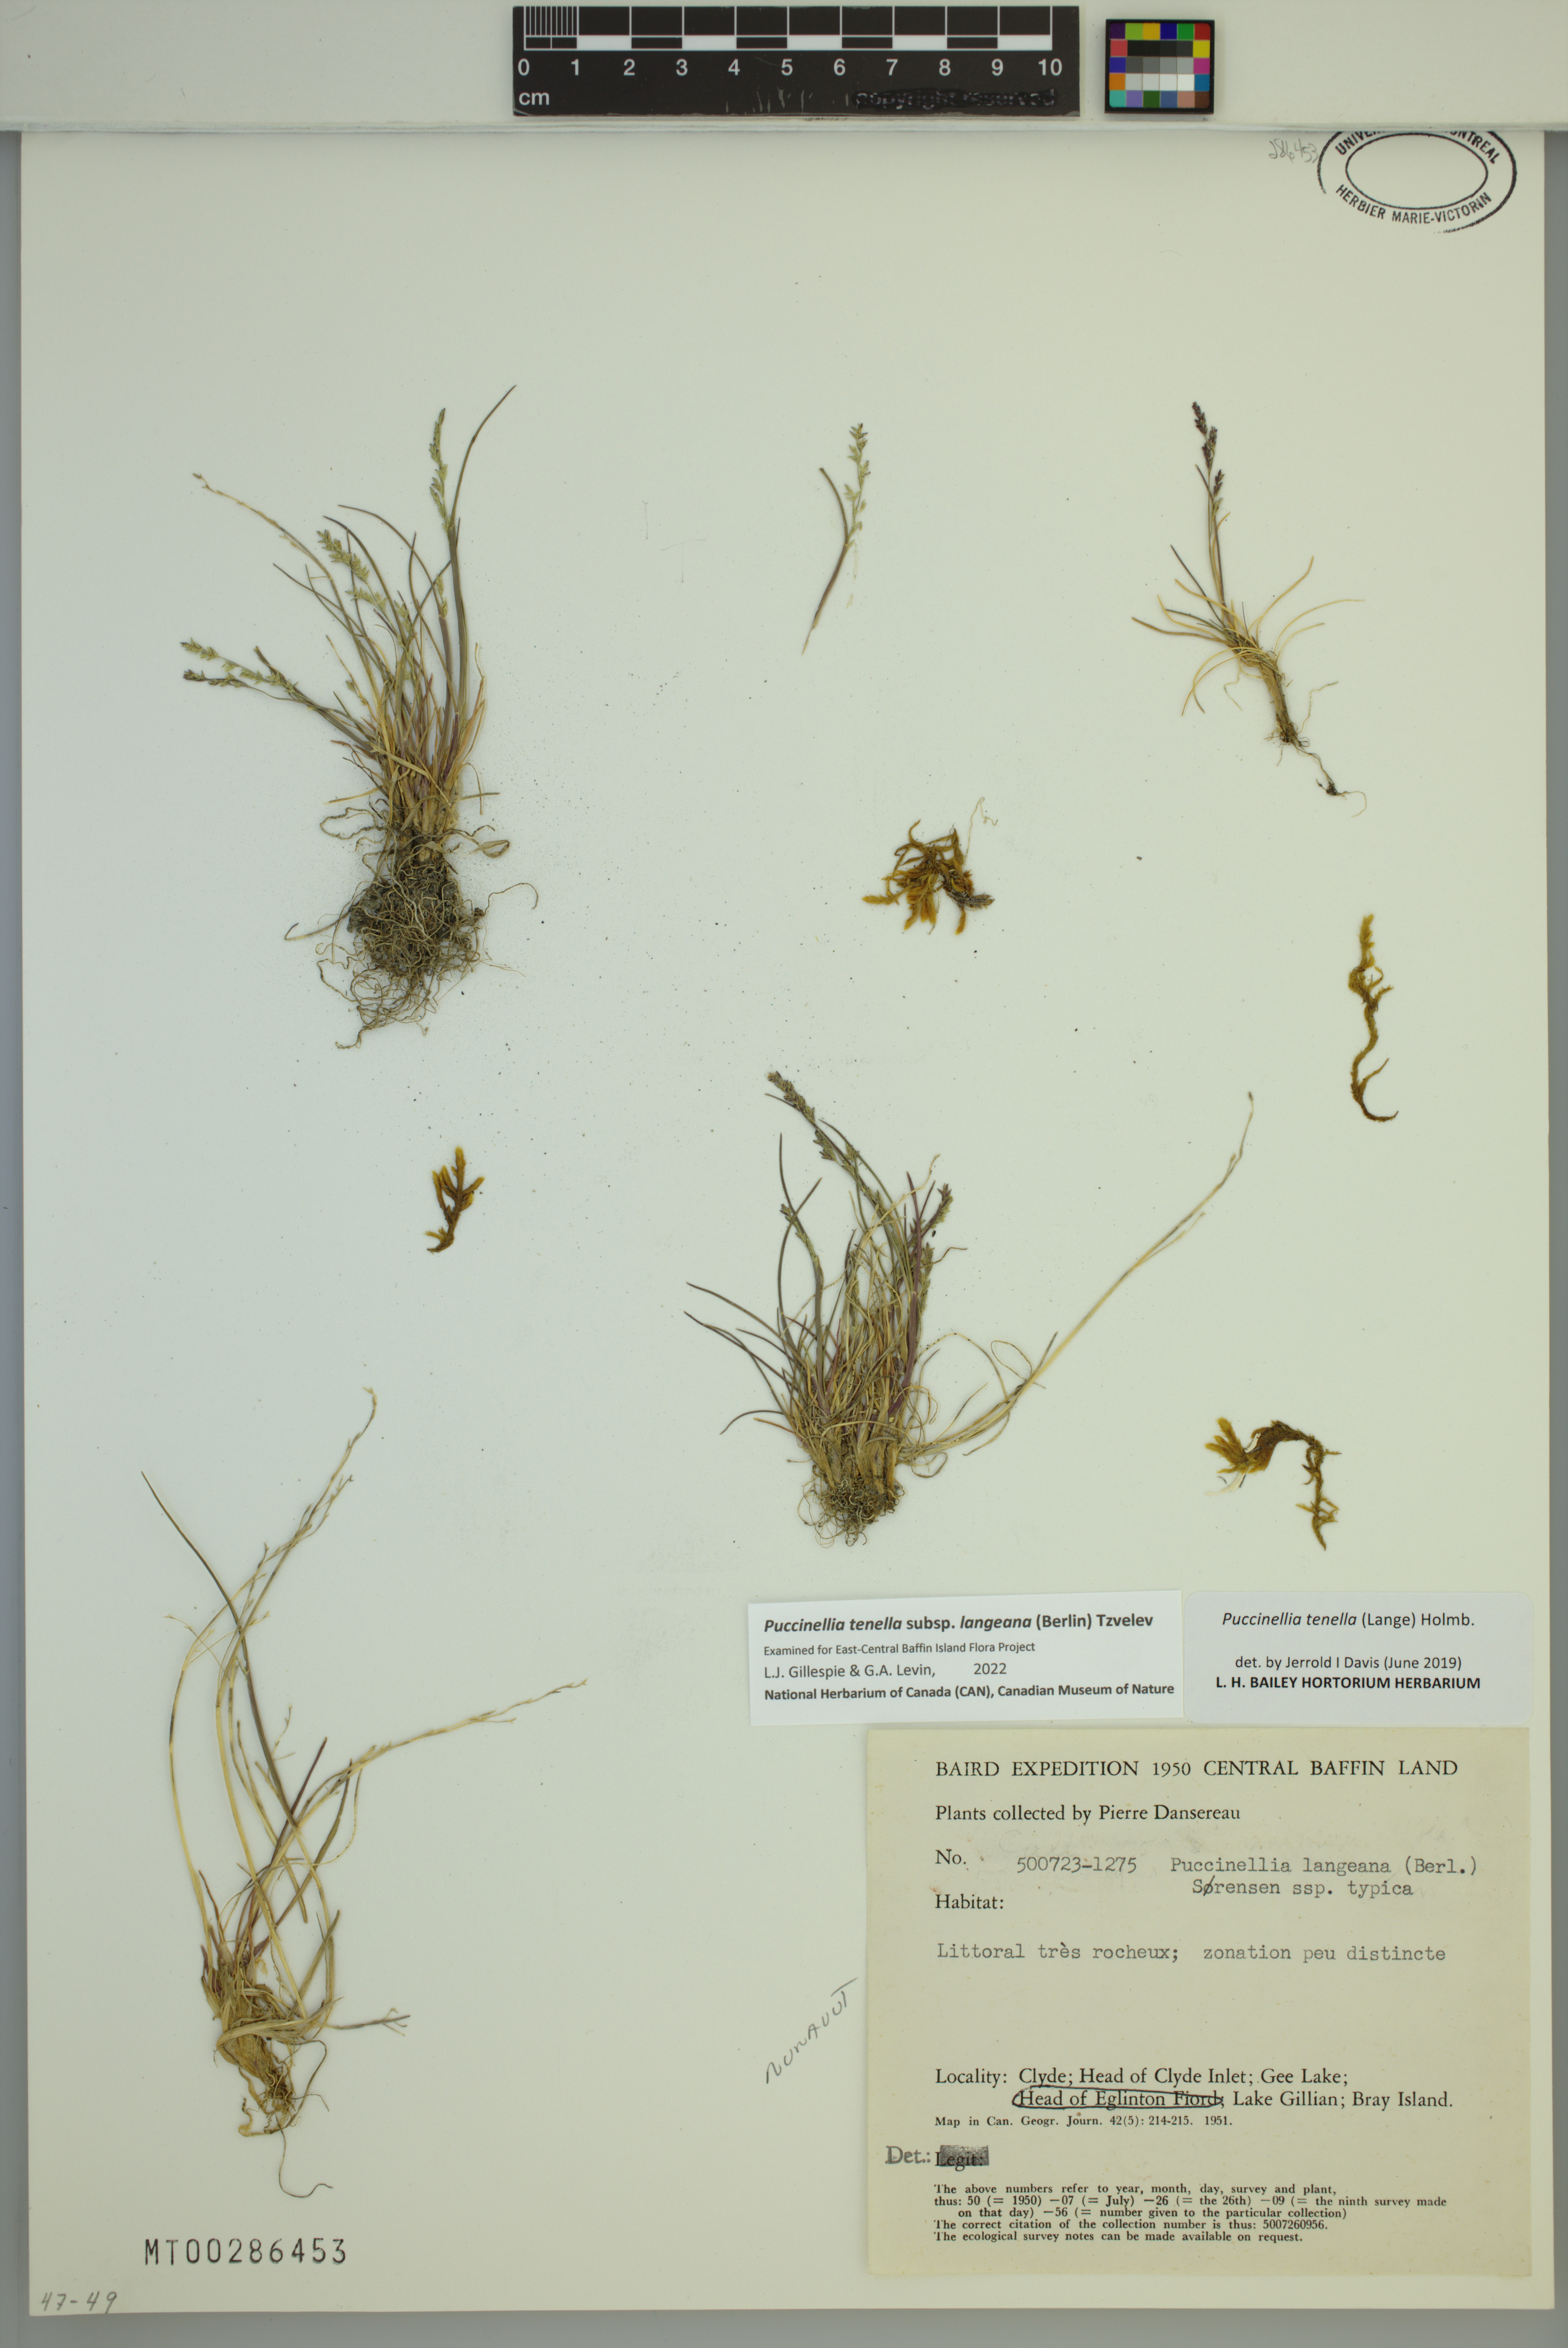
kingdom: Plantae
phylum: Tracheophyta
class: Liliopsida
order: Poales
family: Poaceae
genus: Puccinellia
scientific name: Puccinellia tenella
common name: Tundra alkaligrass
